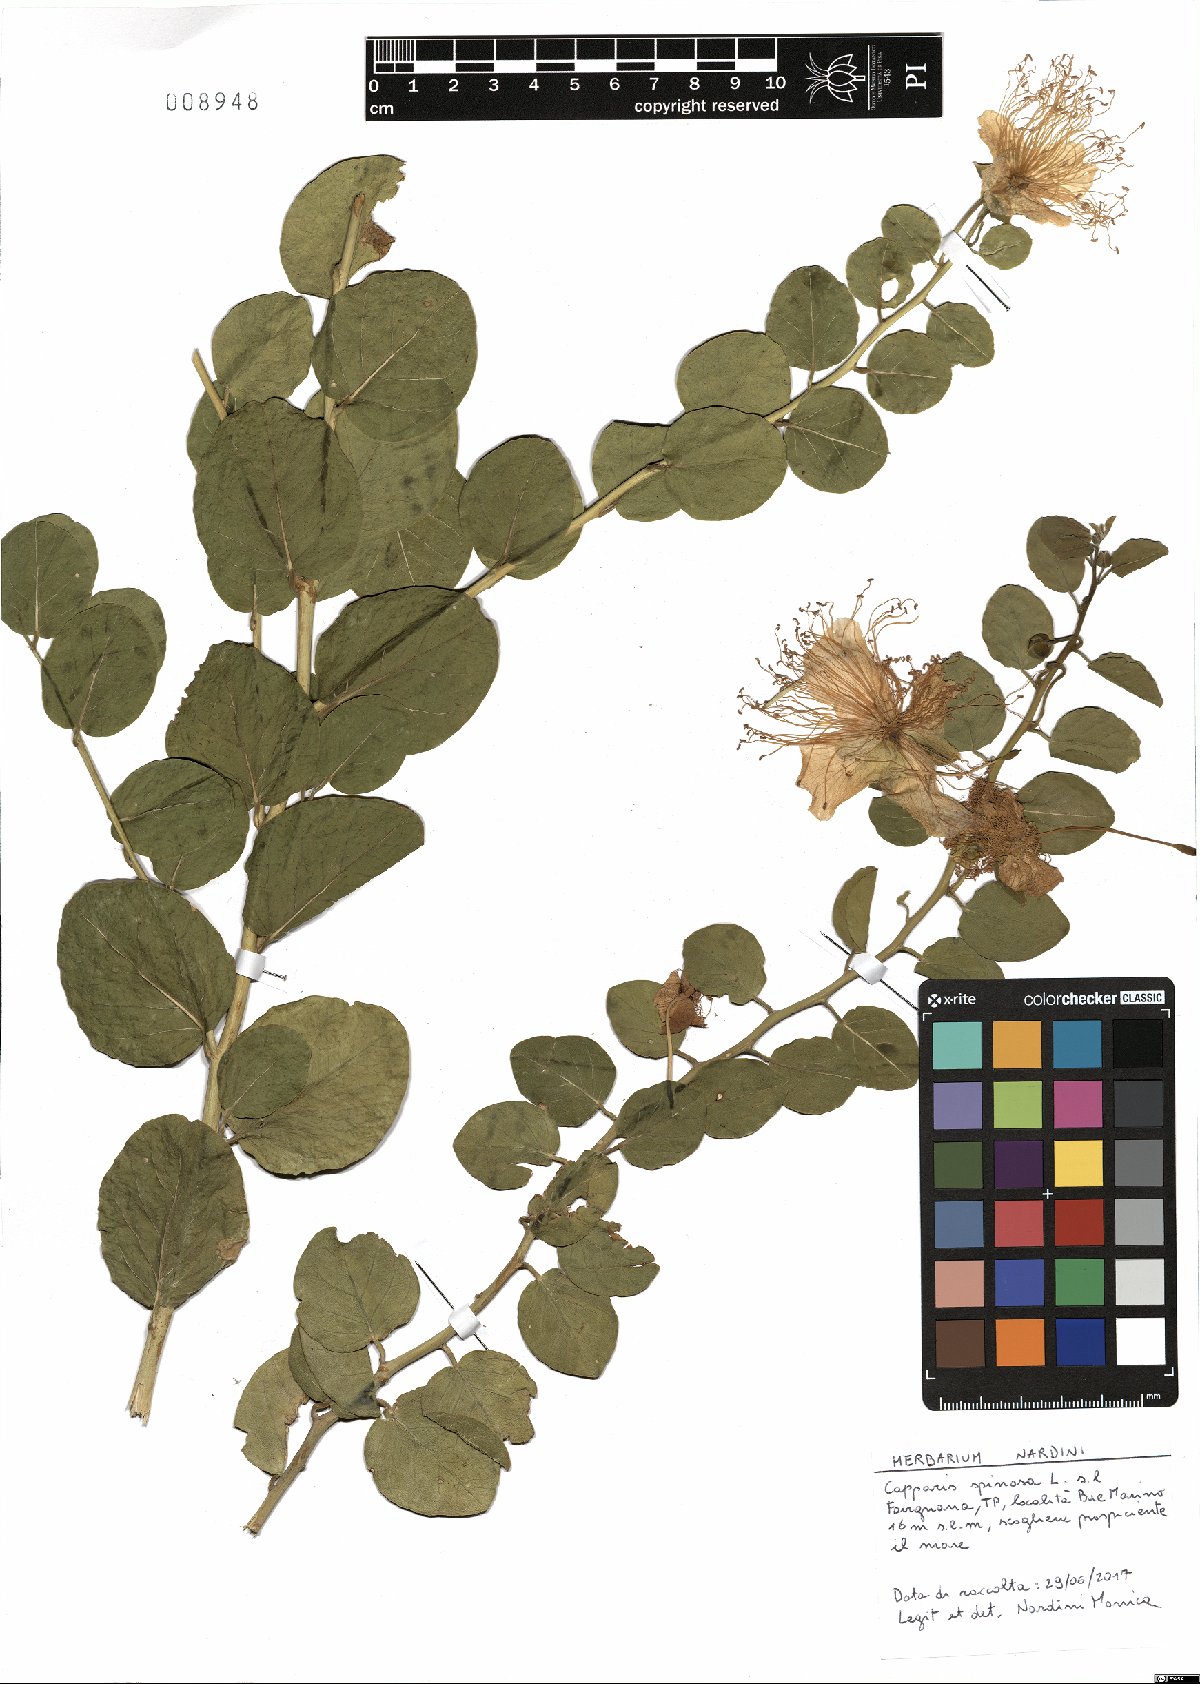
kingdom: Plantae
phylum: Tracheophyta
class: Magnoliopsida
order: Brassicales
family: Capparaceae
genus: Capparis
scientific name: Capparis spinosa
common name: Caper
